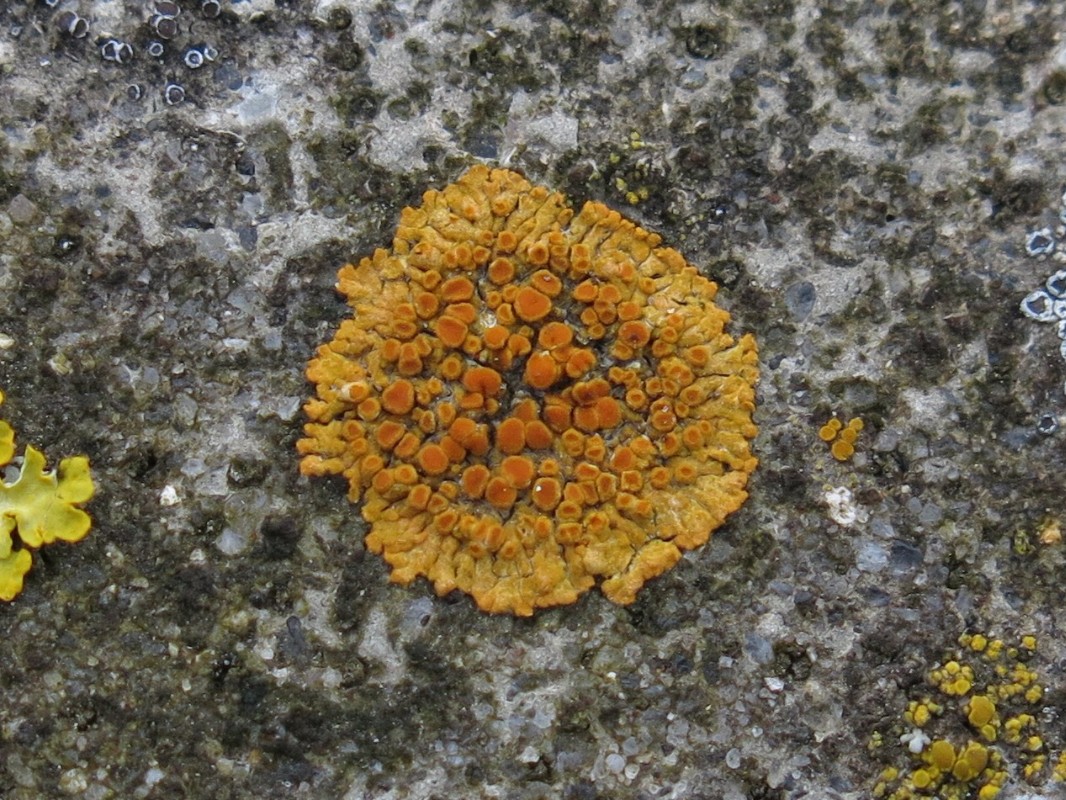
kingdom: Fungi
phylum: Ascomycota
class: Lecanoromycetes
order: Teloschistales
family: Teloschistaceae
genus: Variospora
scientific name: Variospora flavescens
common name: kalk-orangelav
